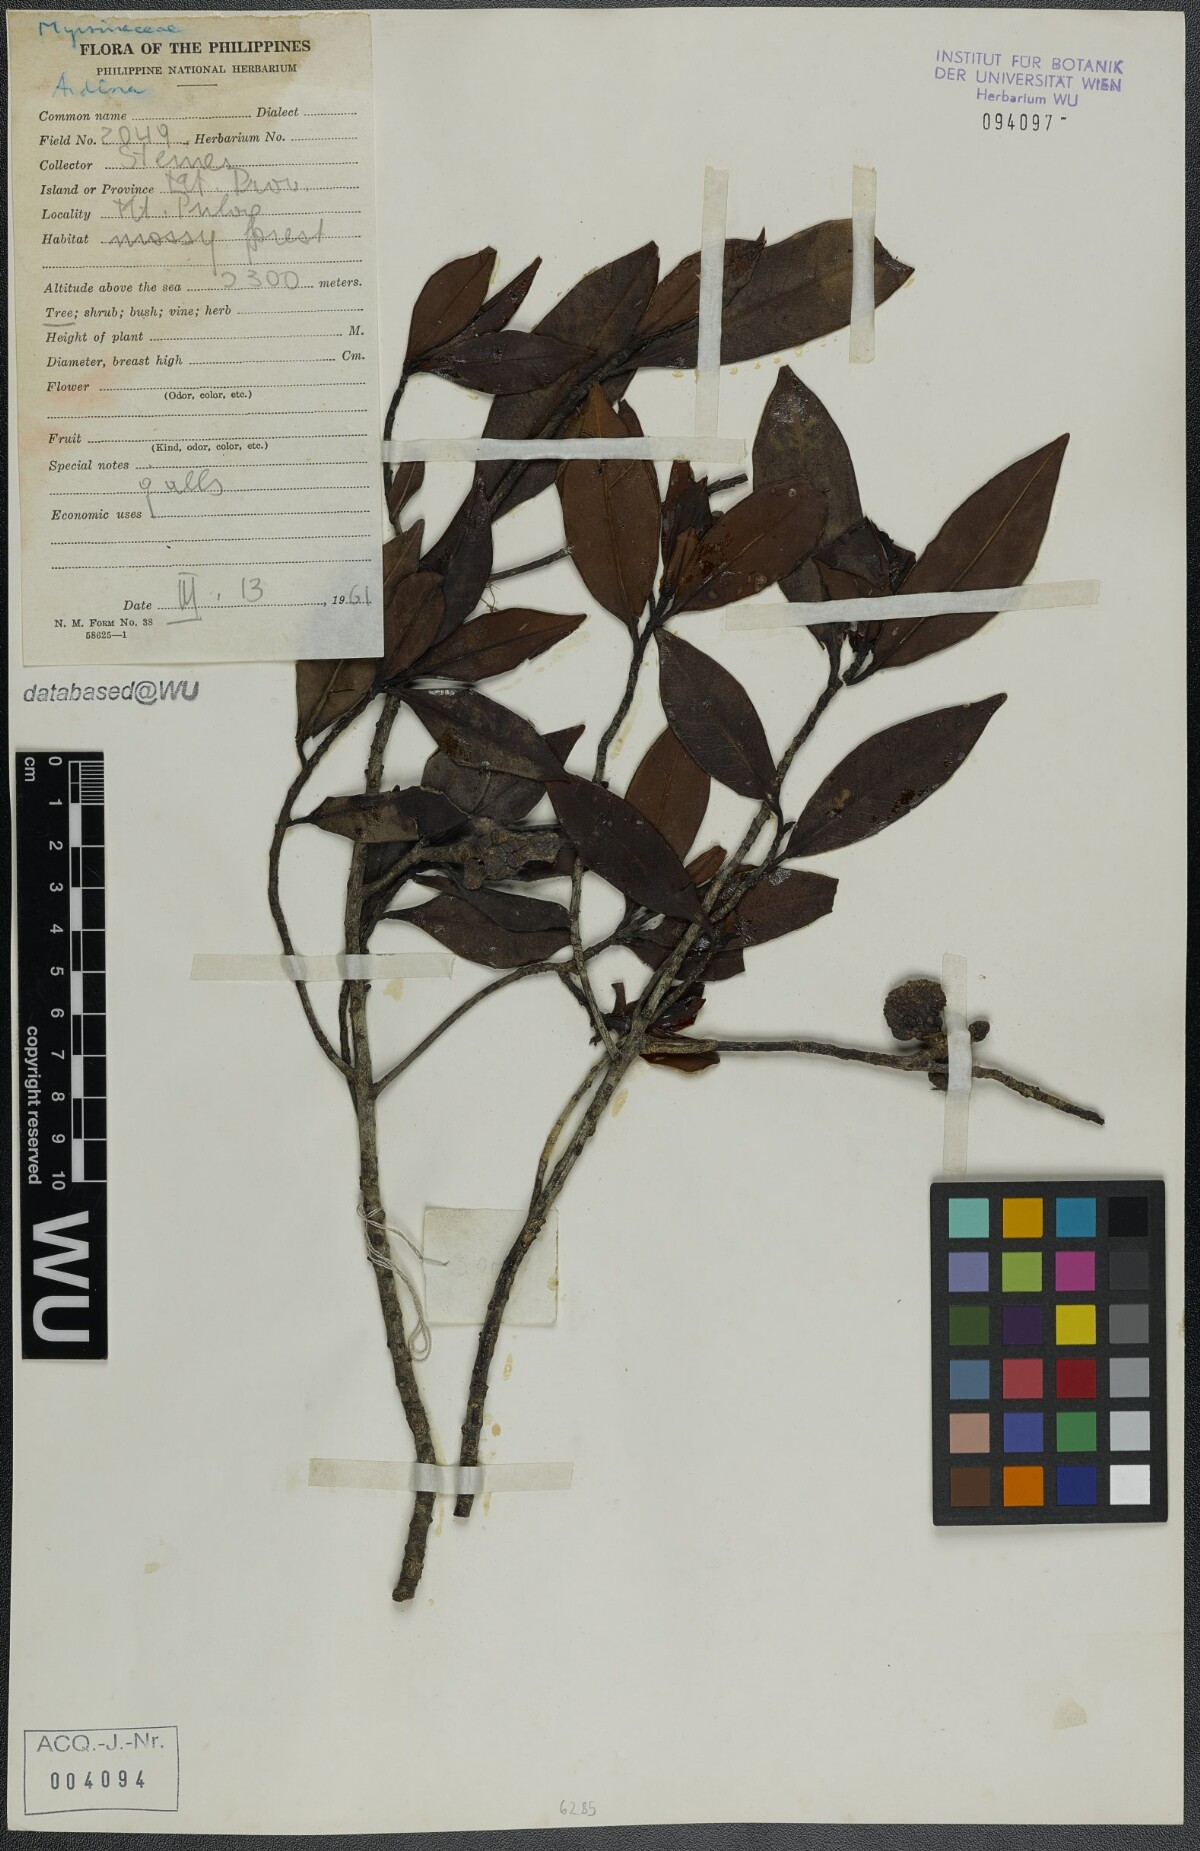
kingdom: Plantae
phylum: Tracheophyta
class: Magnoliopsida
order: Ericales
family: Primulaceae
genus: Ardisia
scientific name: Ardisia
